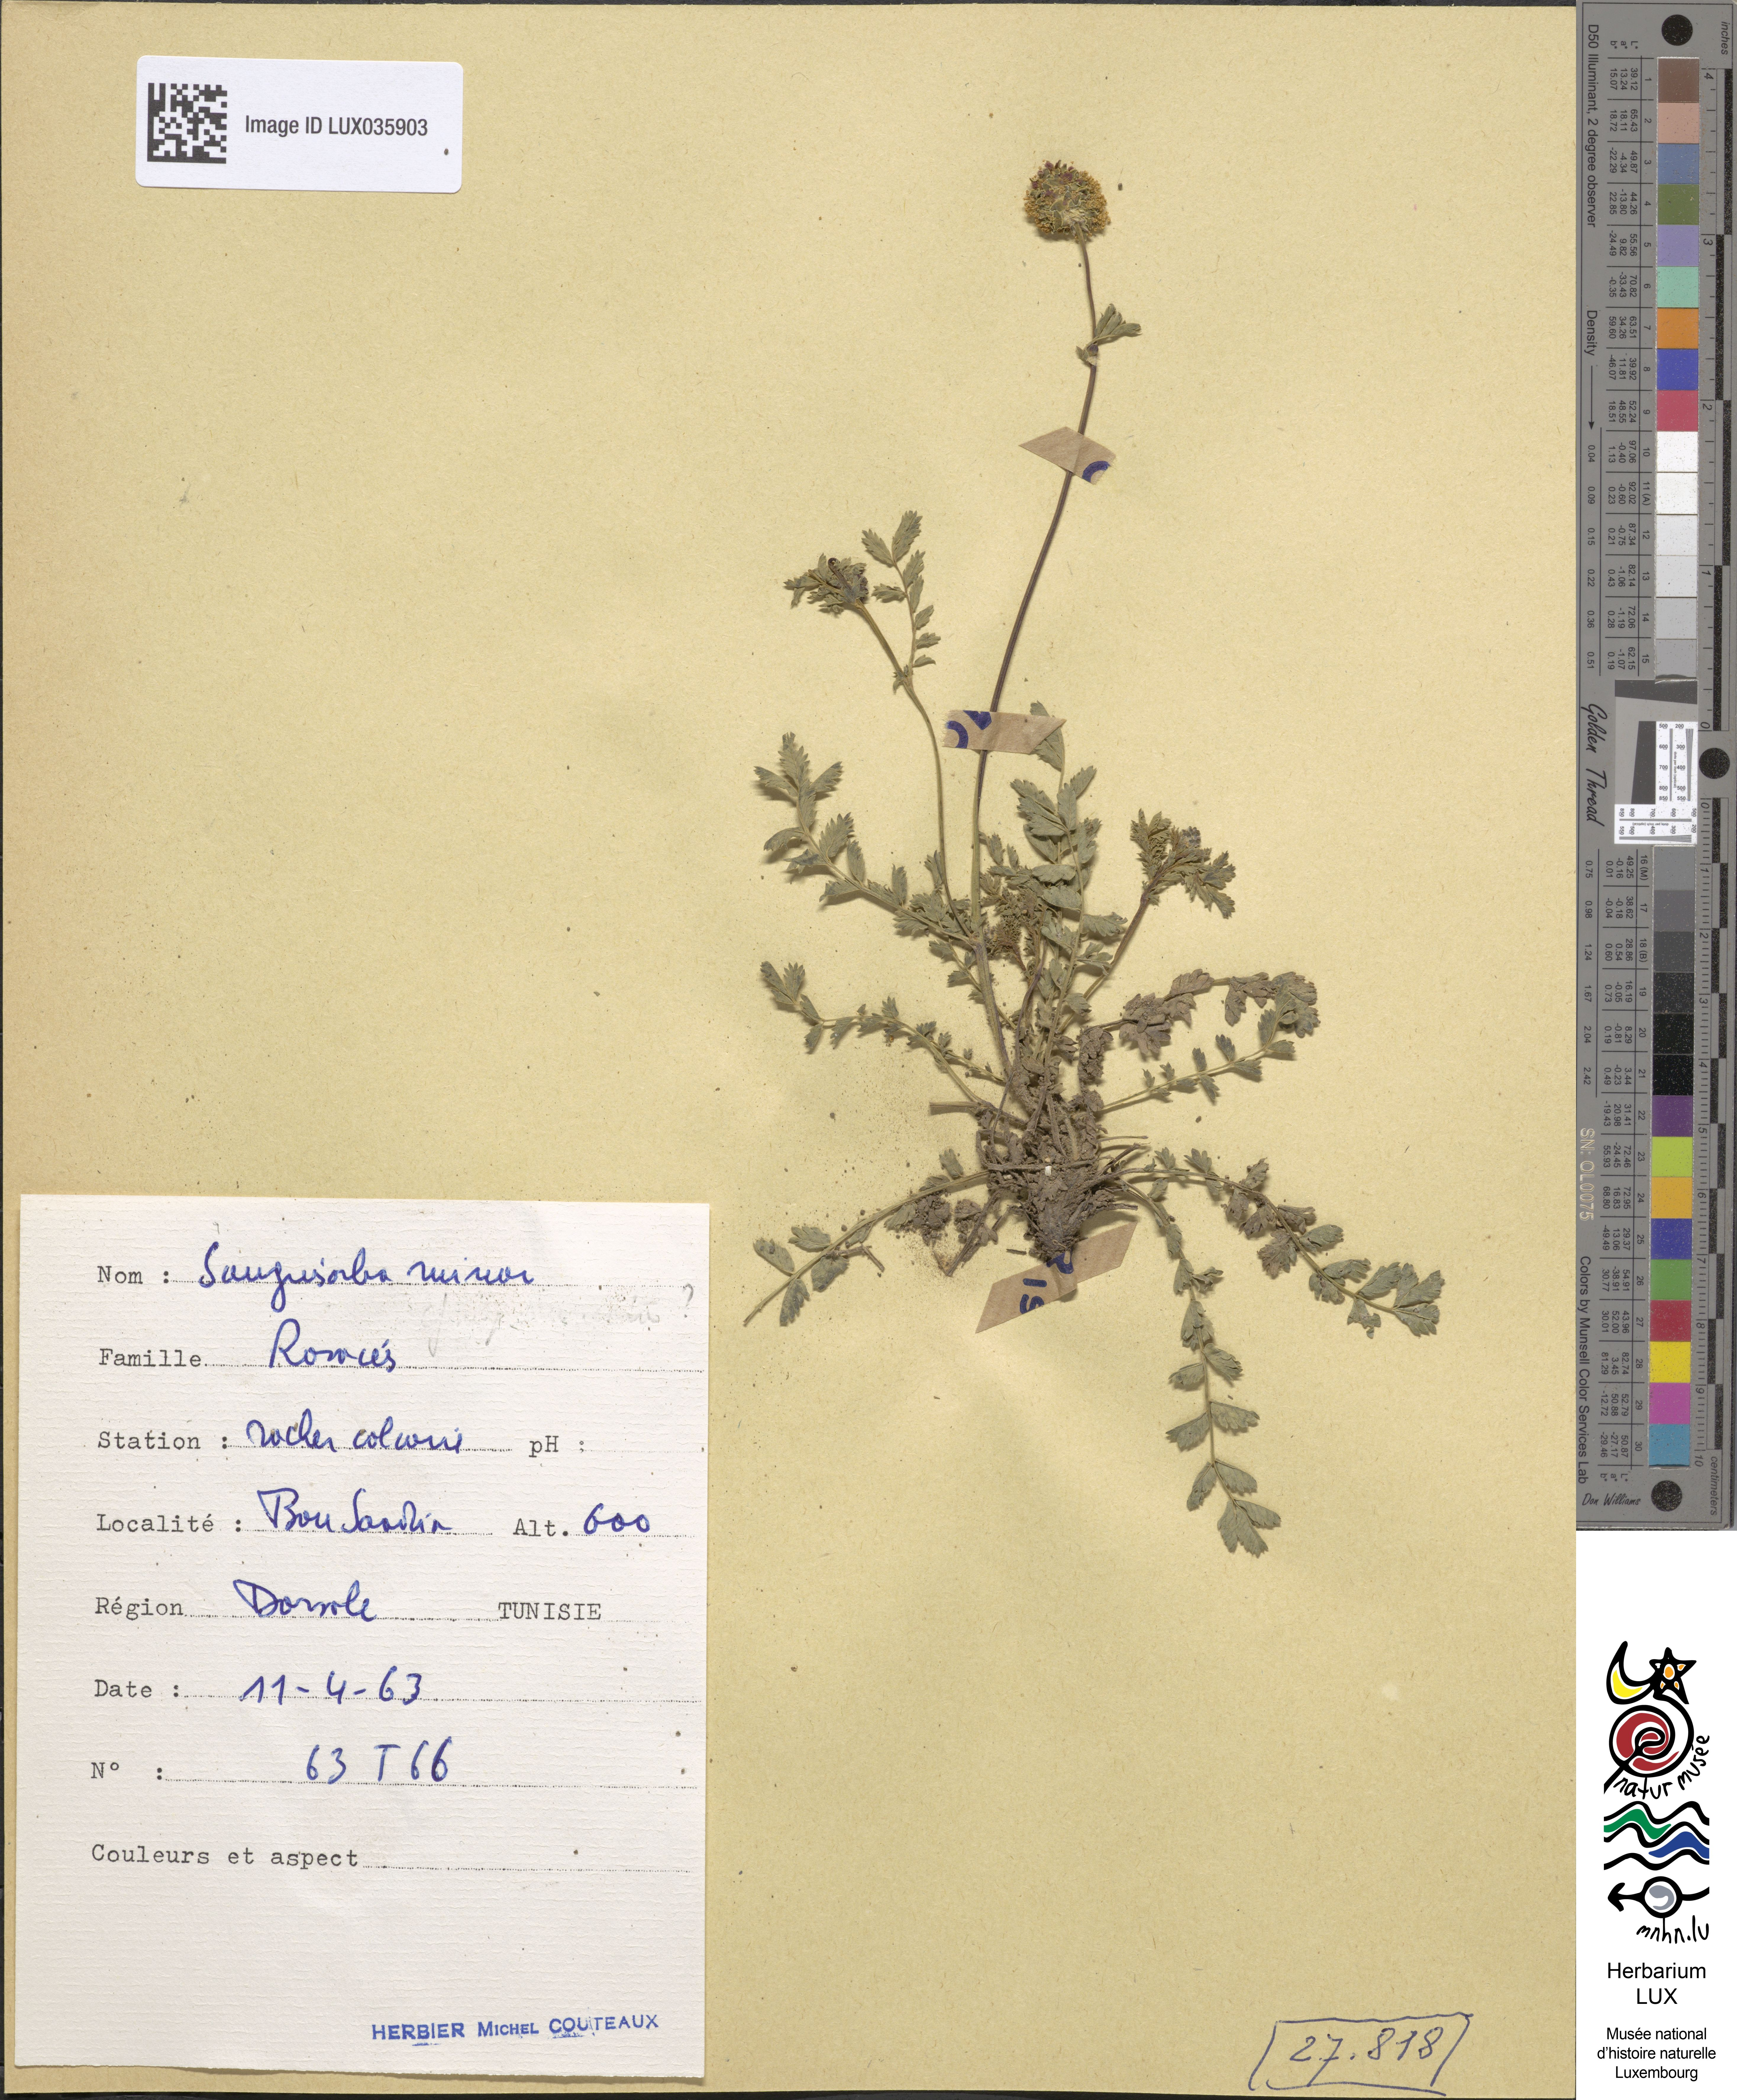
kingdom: Plantae
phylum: Tracheophyta
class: Magnoliopsida
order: Rosales
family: Rosaceae
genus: Poterium
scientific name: Poterium sanguisorba
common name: Salad burnet
